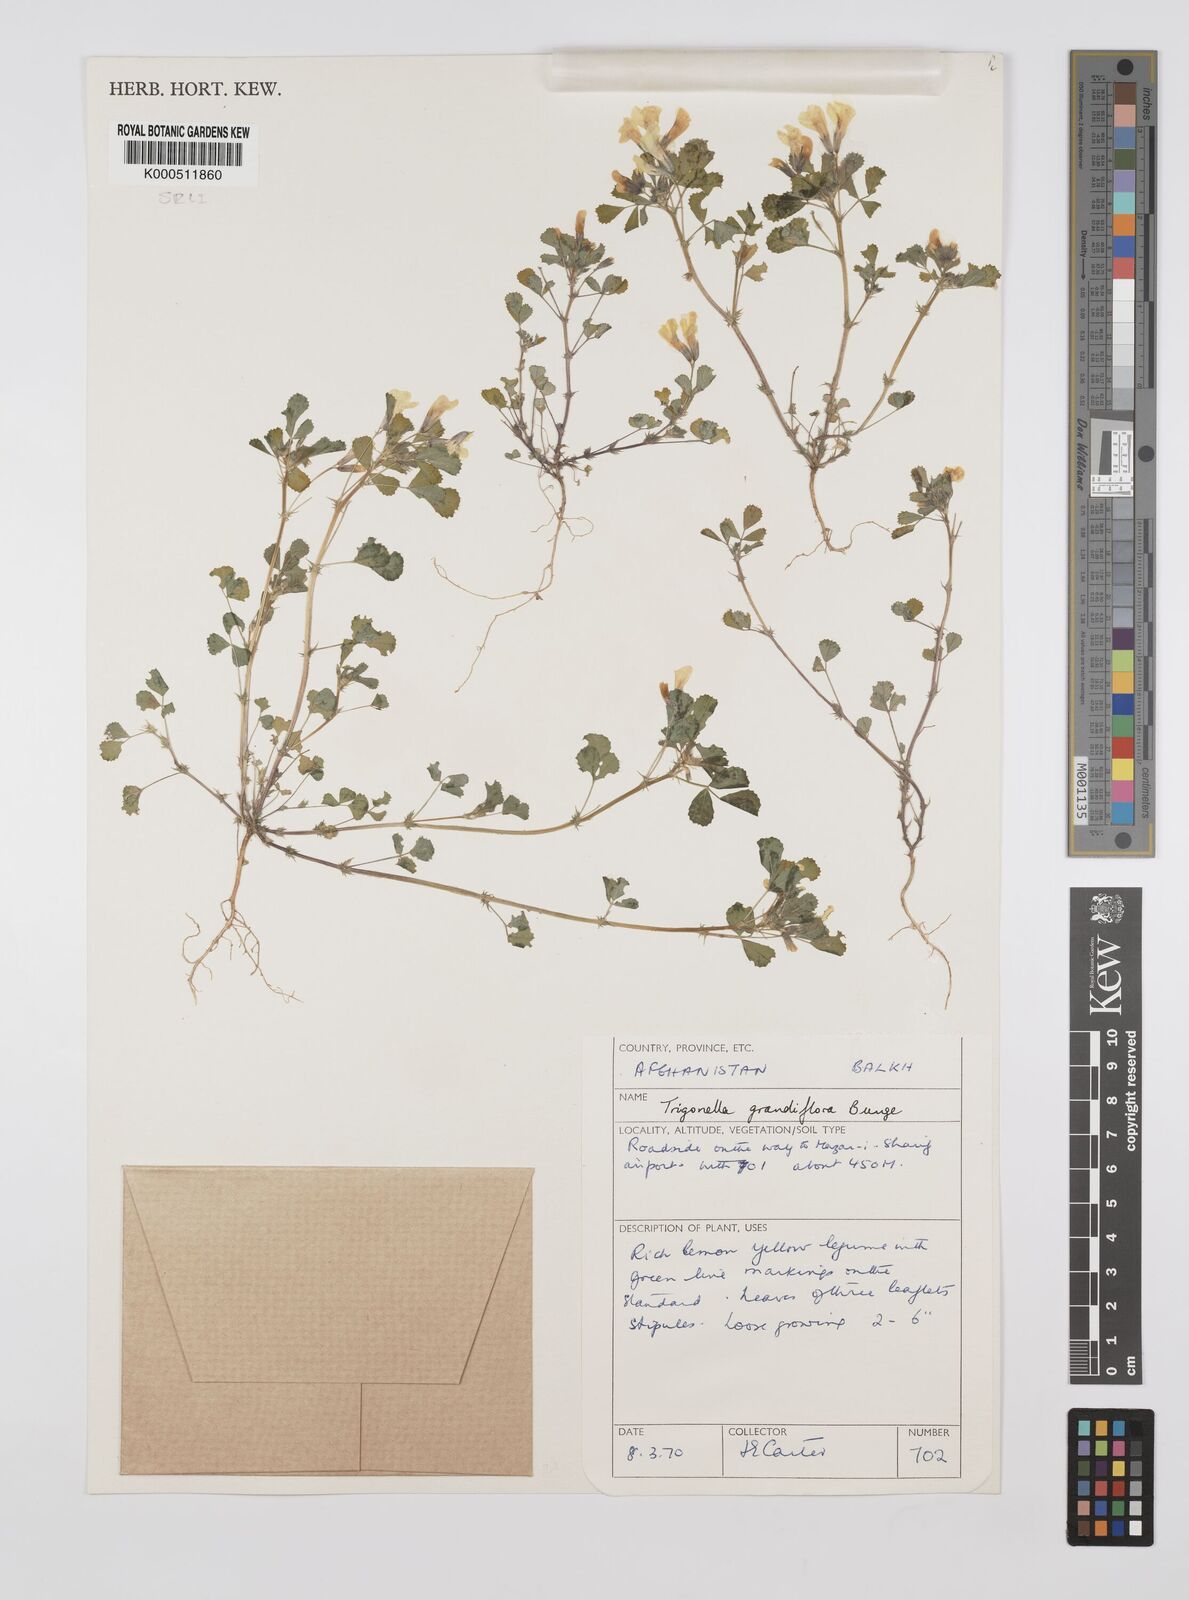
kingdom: Plantae
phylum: Tracheophyta
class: Magnoliopsida
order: Fabales
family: Fabaceae
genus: Trigonella
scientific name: Trigonella grandiflora
